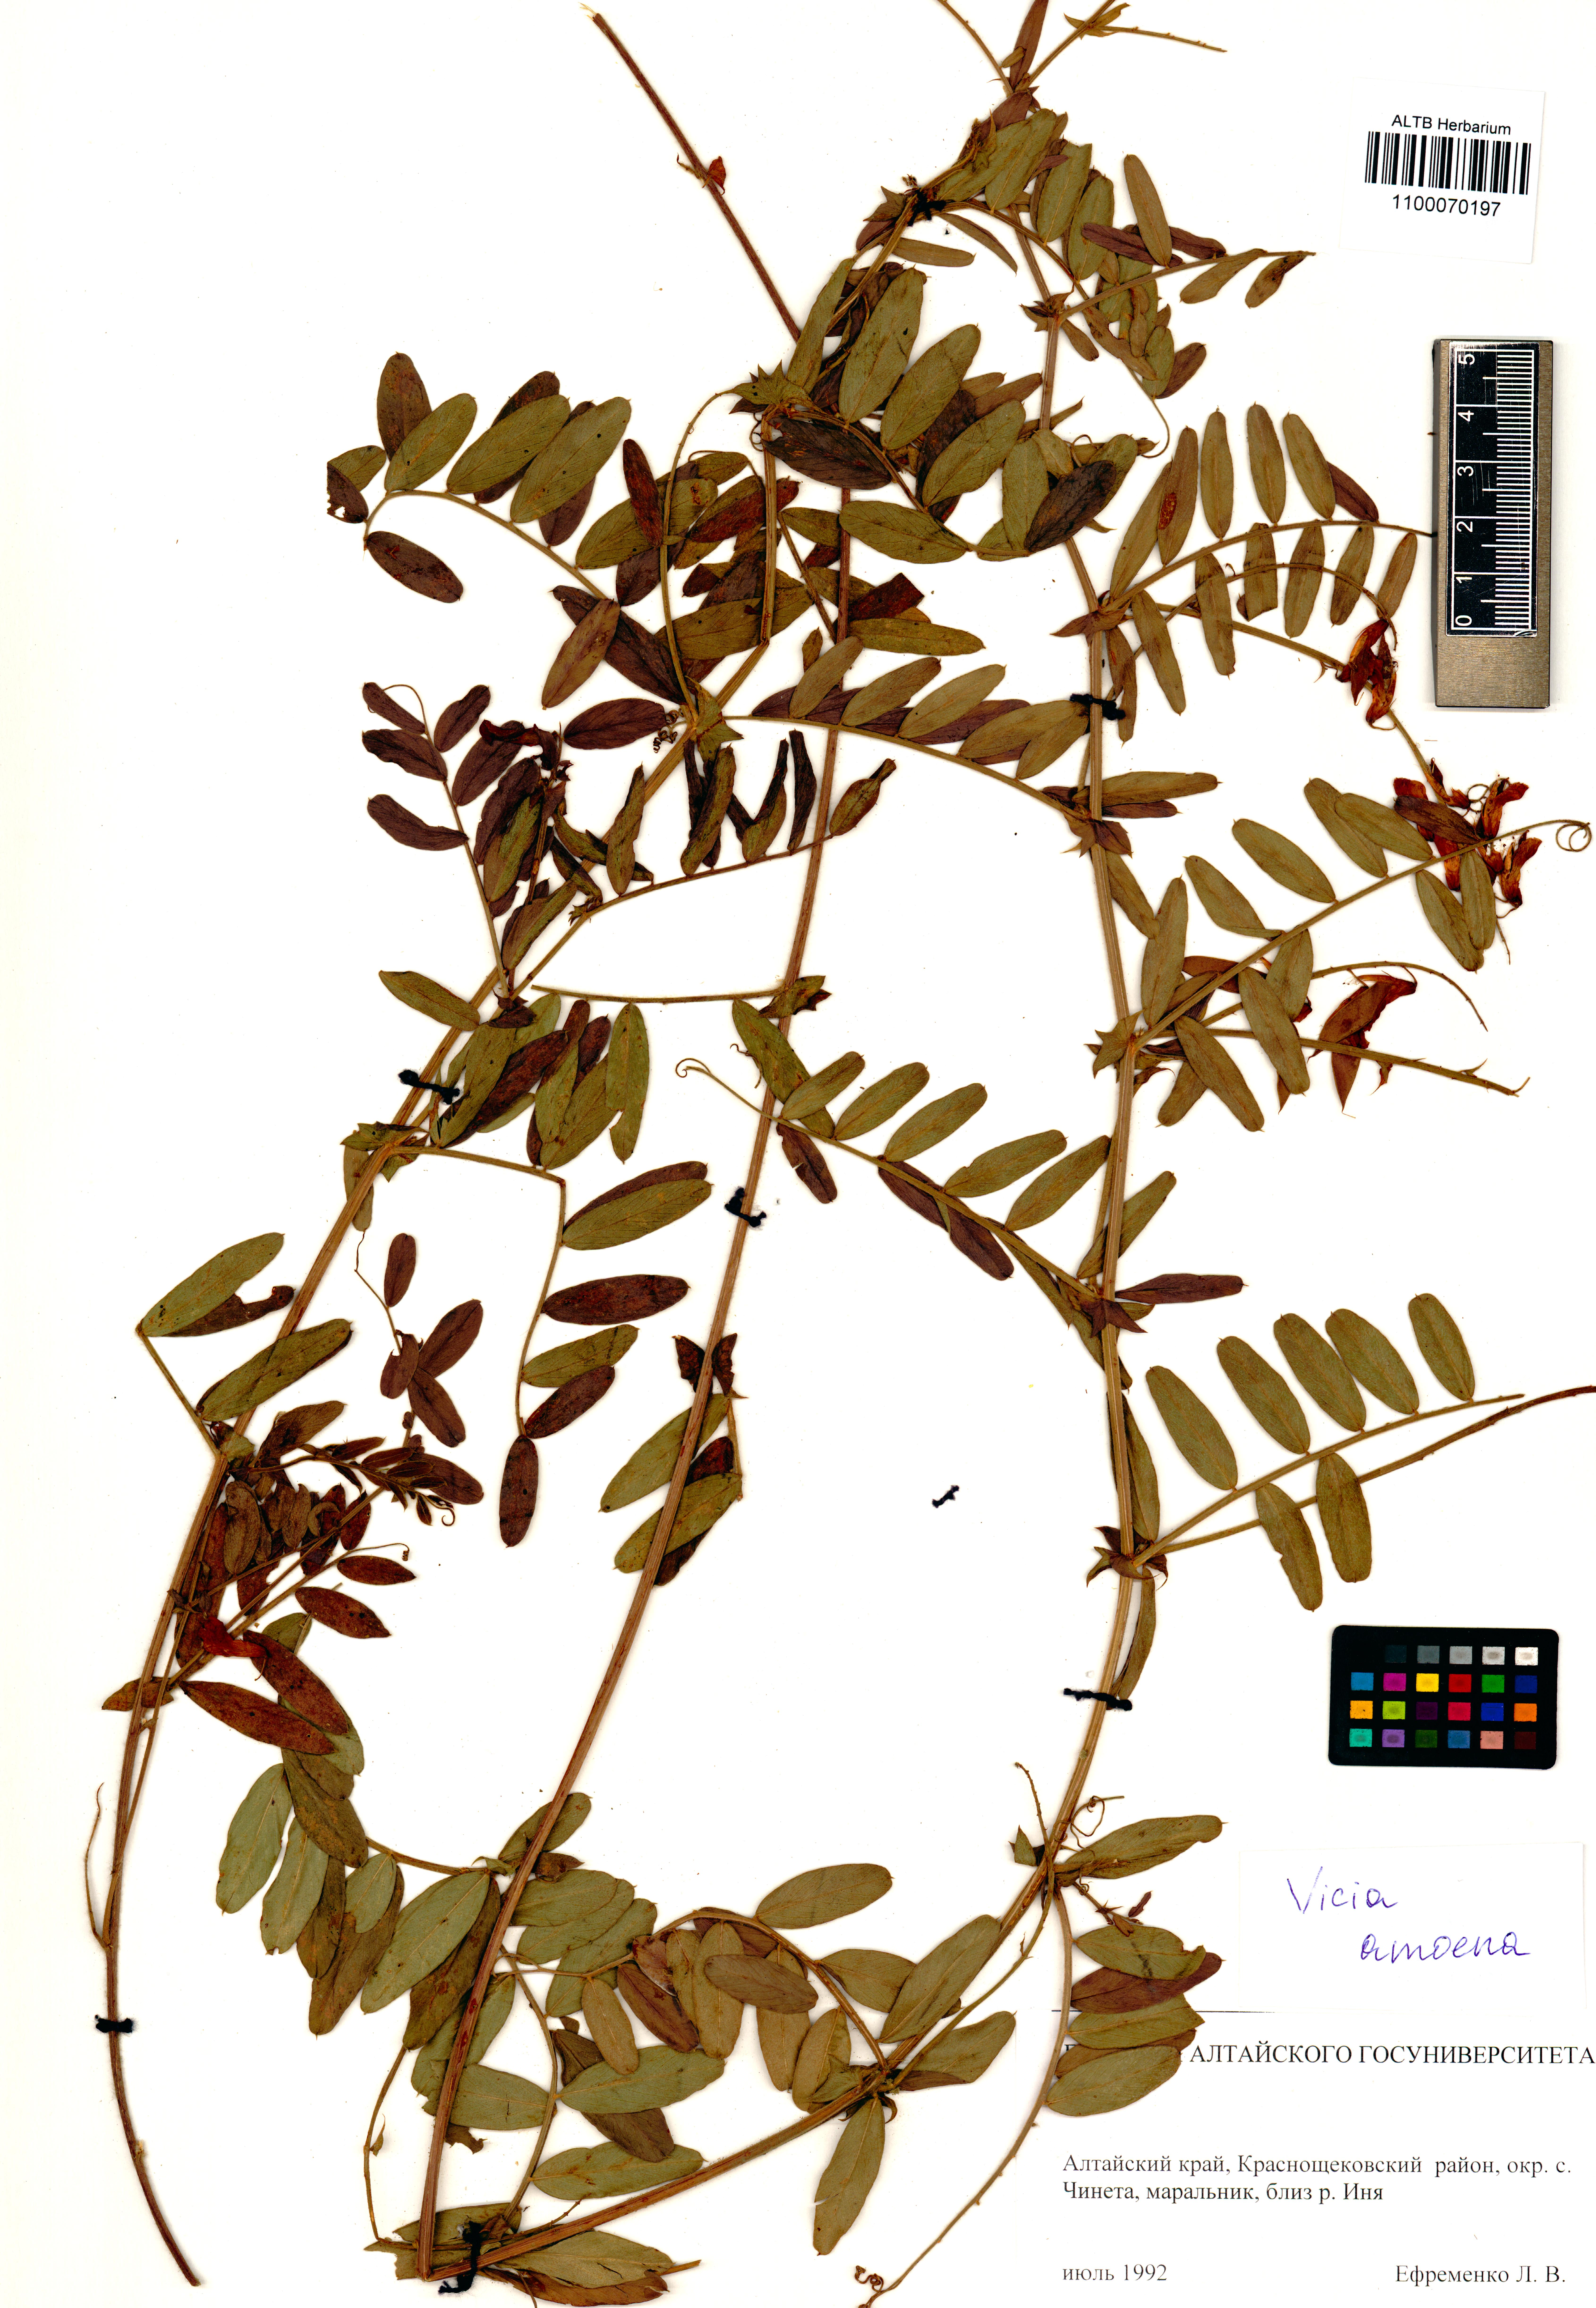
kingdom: Plantae
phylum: Tracheophyta
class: Magnoliopsida
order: Fabales
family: Fabaceae
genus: Vicia
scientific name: Vicia amoena
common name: Cheder ebs
